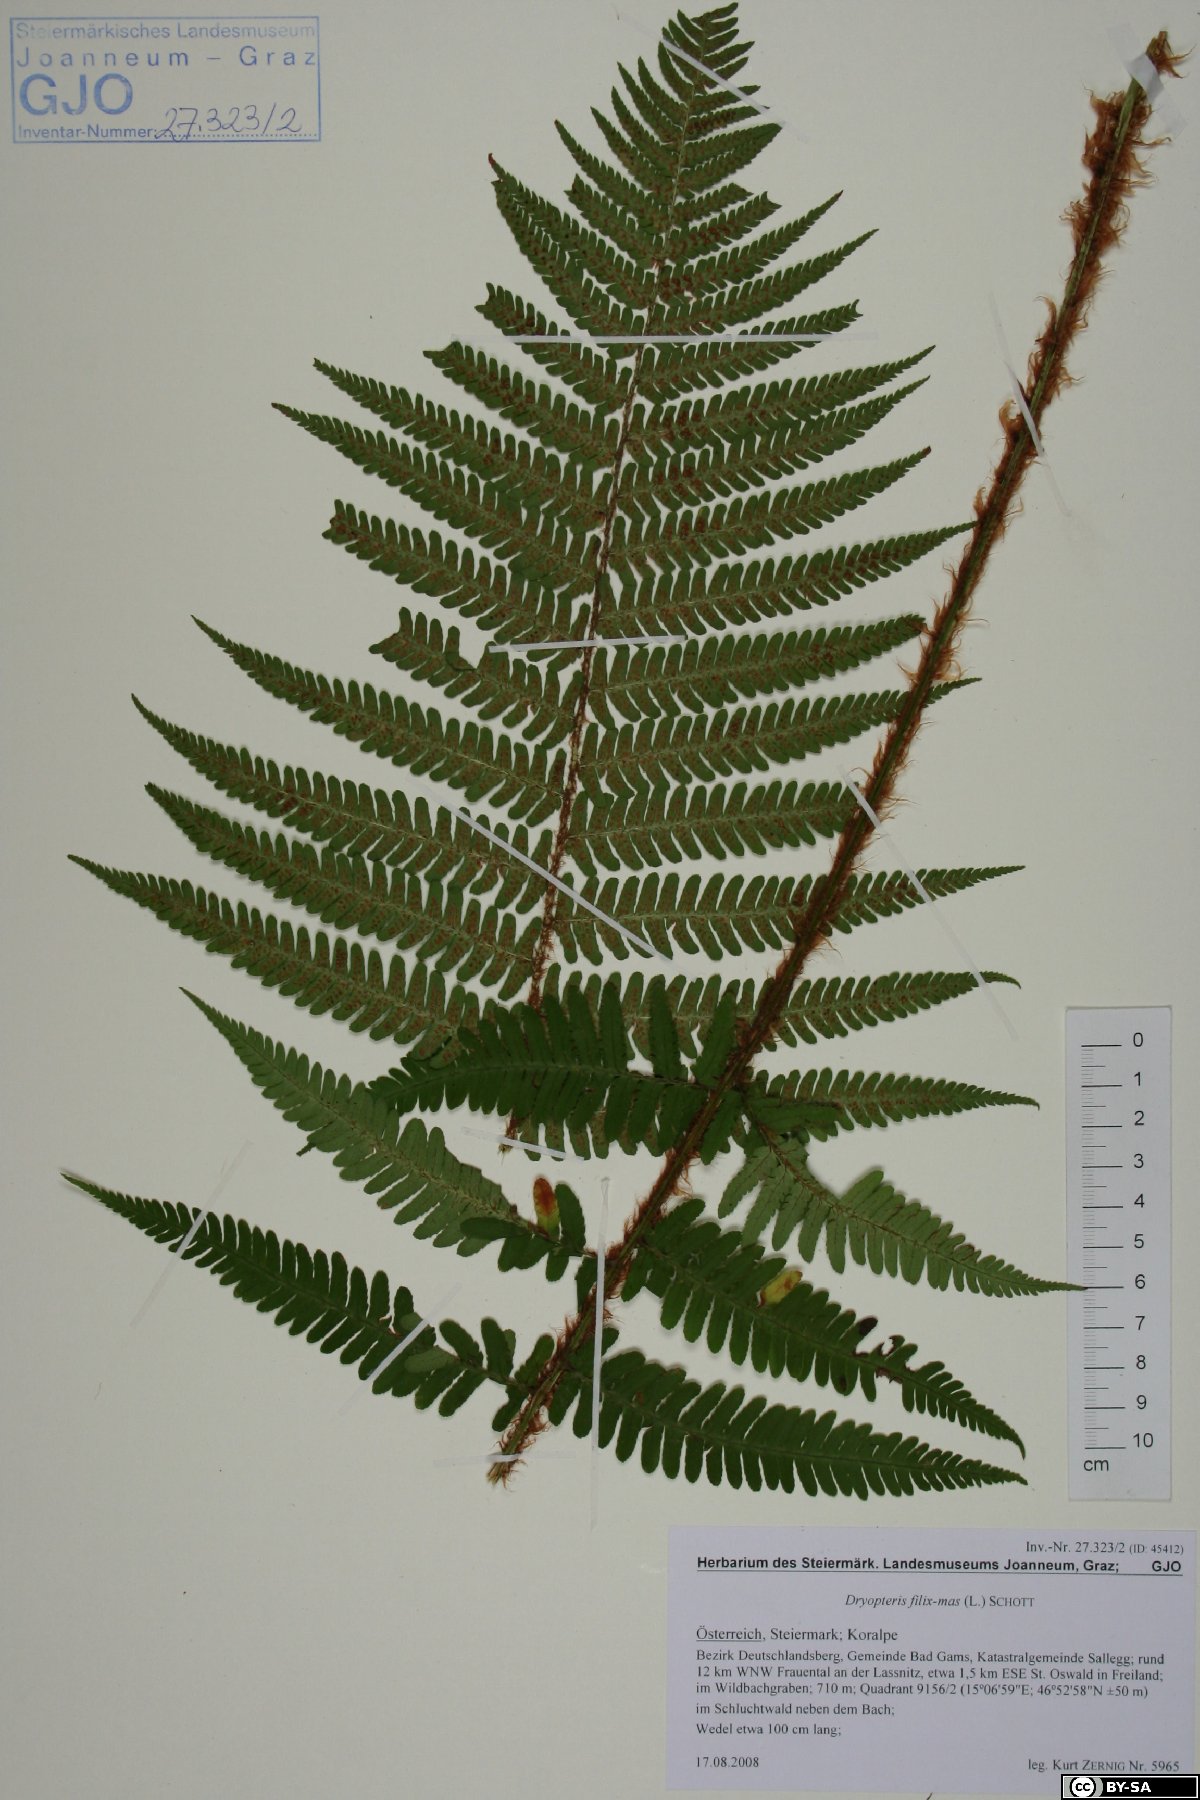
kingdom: Plantae
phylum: Tracheophyta
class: Polypodiopsida
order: Polypodiales
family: Dryopteridaceae
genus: Dryopteris
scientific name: Dryopteris filix-mas
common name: Male fern
